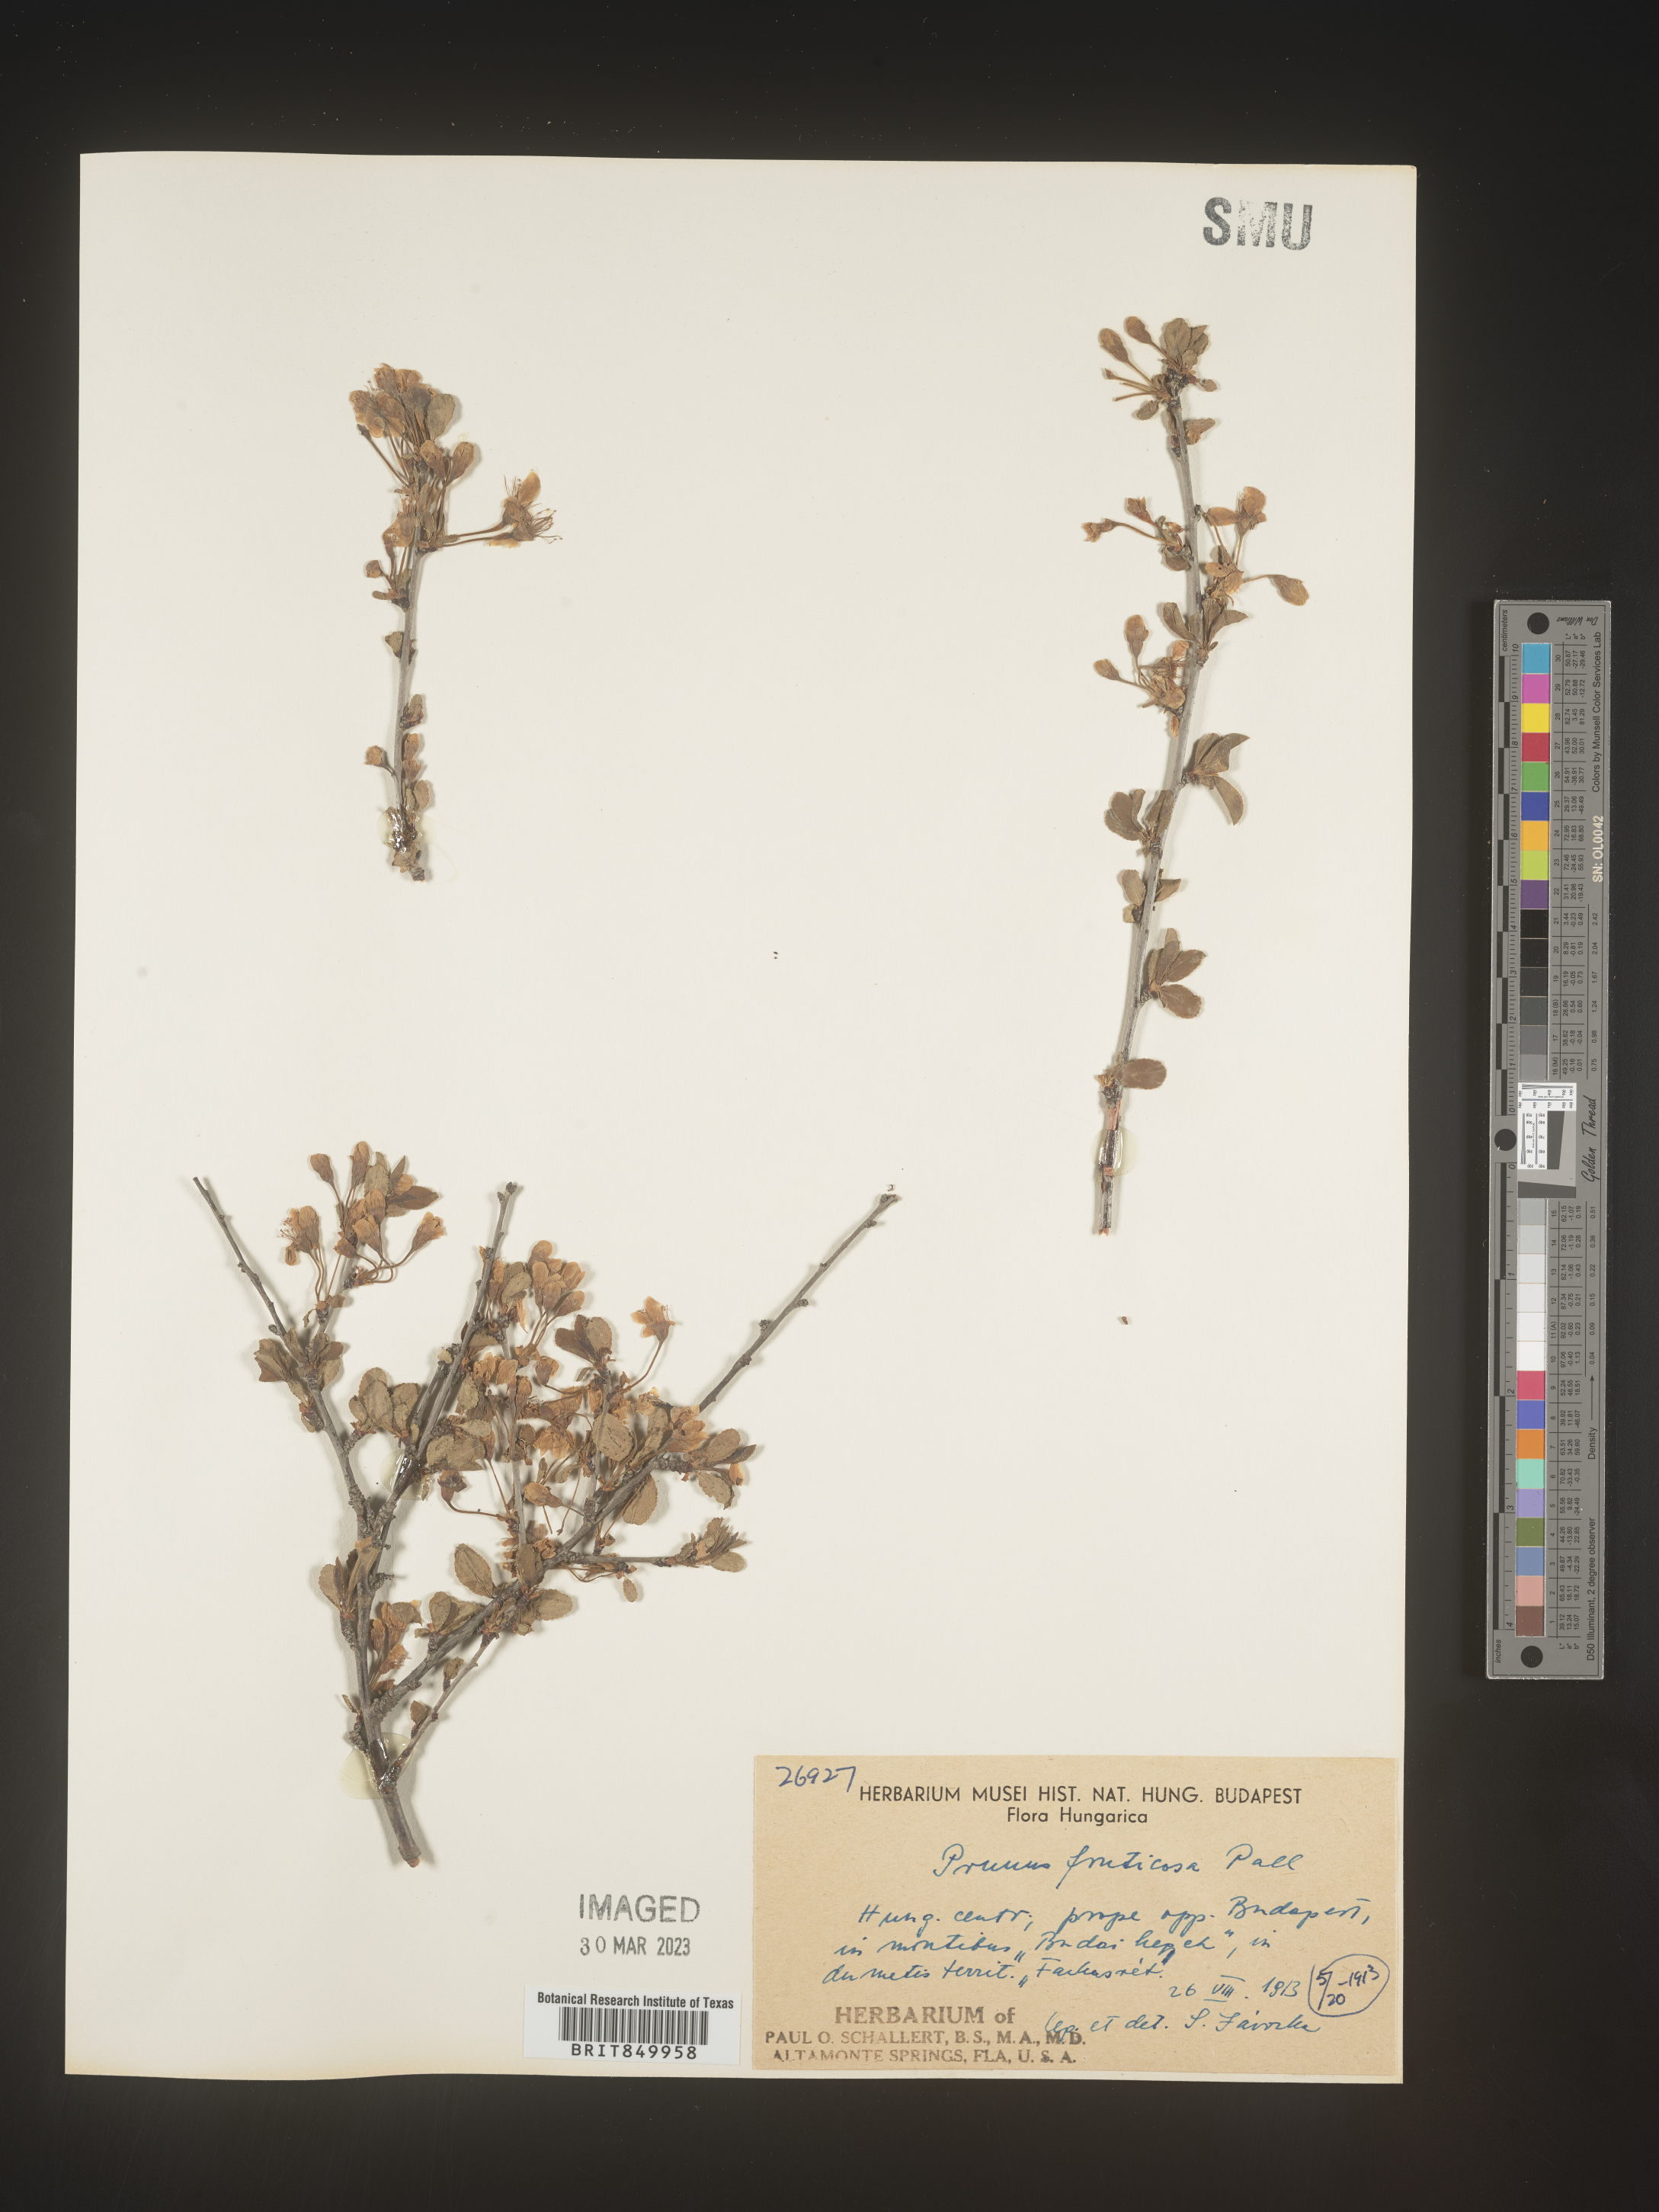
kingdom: Plantae
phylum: Tracheophyta
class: Magnoliopsida
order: Rosales
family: Rosaceae
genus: Prunus
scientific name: Prunus
